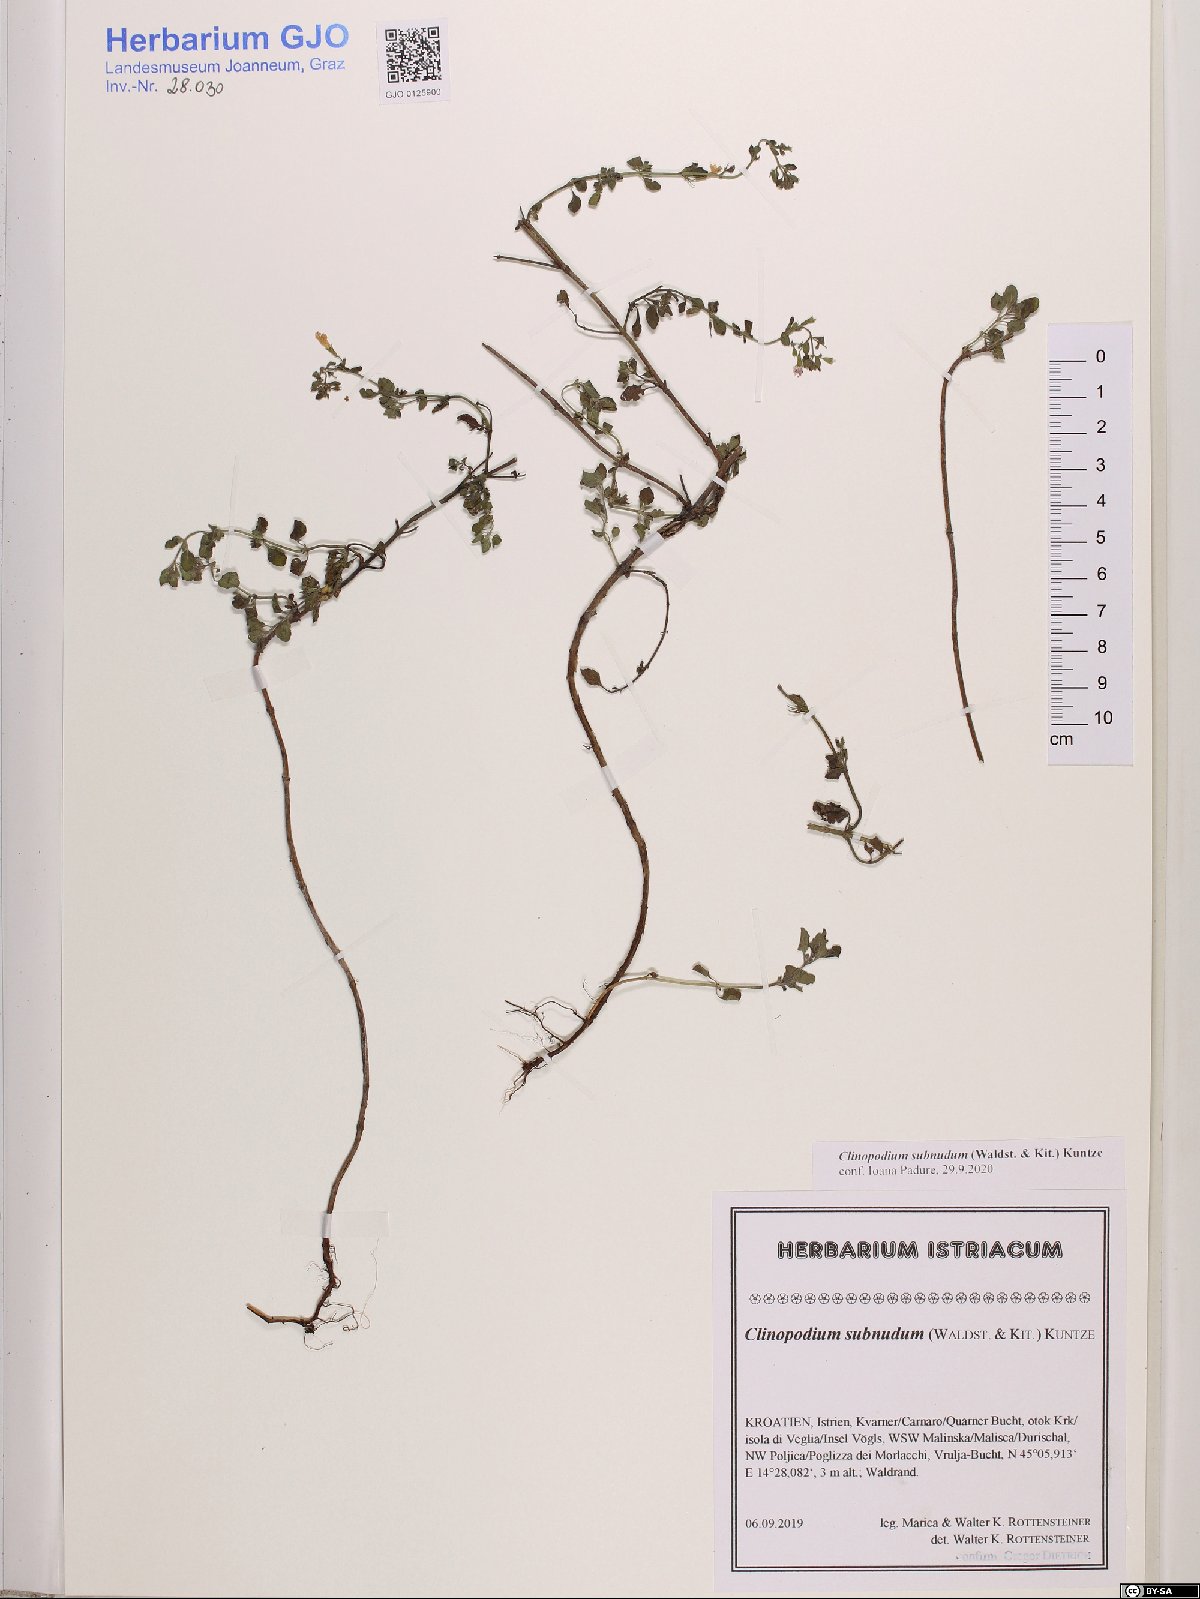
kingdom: Plantae
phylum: Tracheophyta
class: Magnoliopsida
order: Lamiales
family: Lamiaceae
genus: Clinopodium
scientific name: Clinopodium nepeta
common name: Lesser calamint
